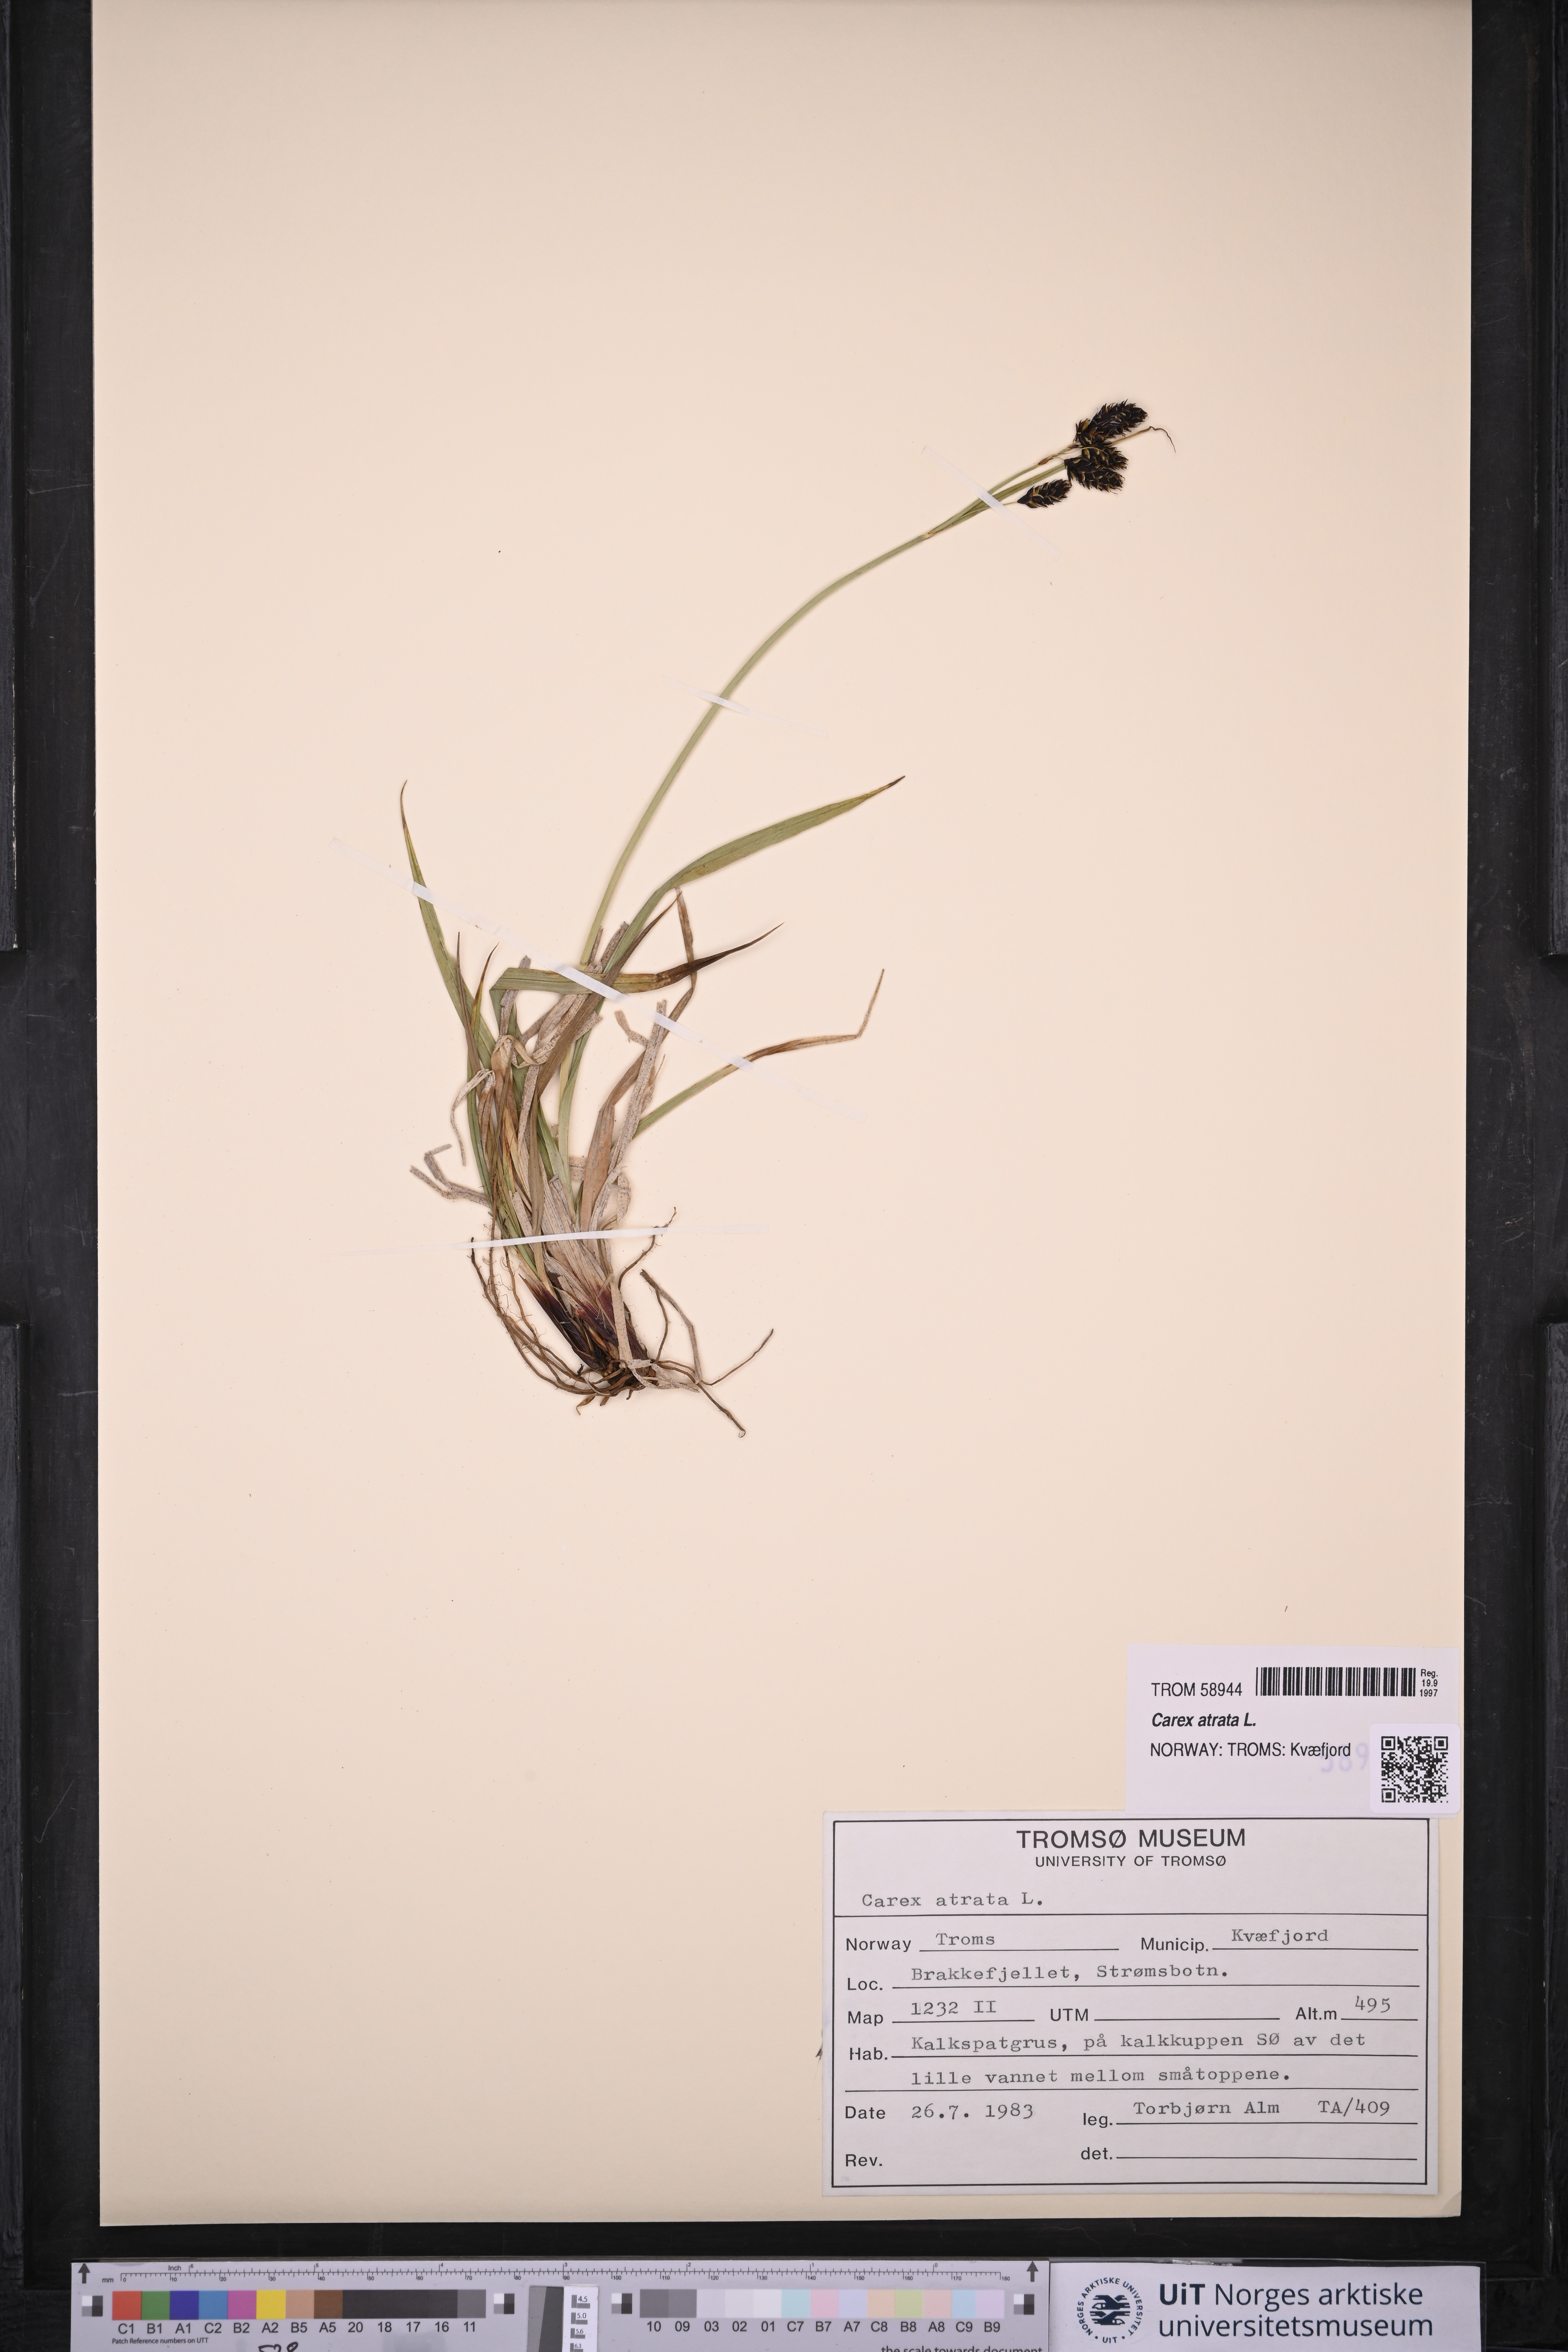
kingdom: Plantae
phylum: Tracheophyta
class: Liliopsida
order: Poales
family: Cyperaceae
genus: Carex
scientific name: Carex atrata
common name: Black alpine sedge
